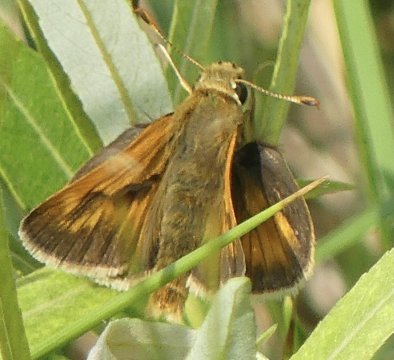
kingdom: Animalia
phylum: Arthropoda
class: Insecta
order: Lepidoptera
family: Hesperiidae
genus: Polites
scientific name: Polites
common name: Long Dash Skipper
